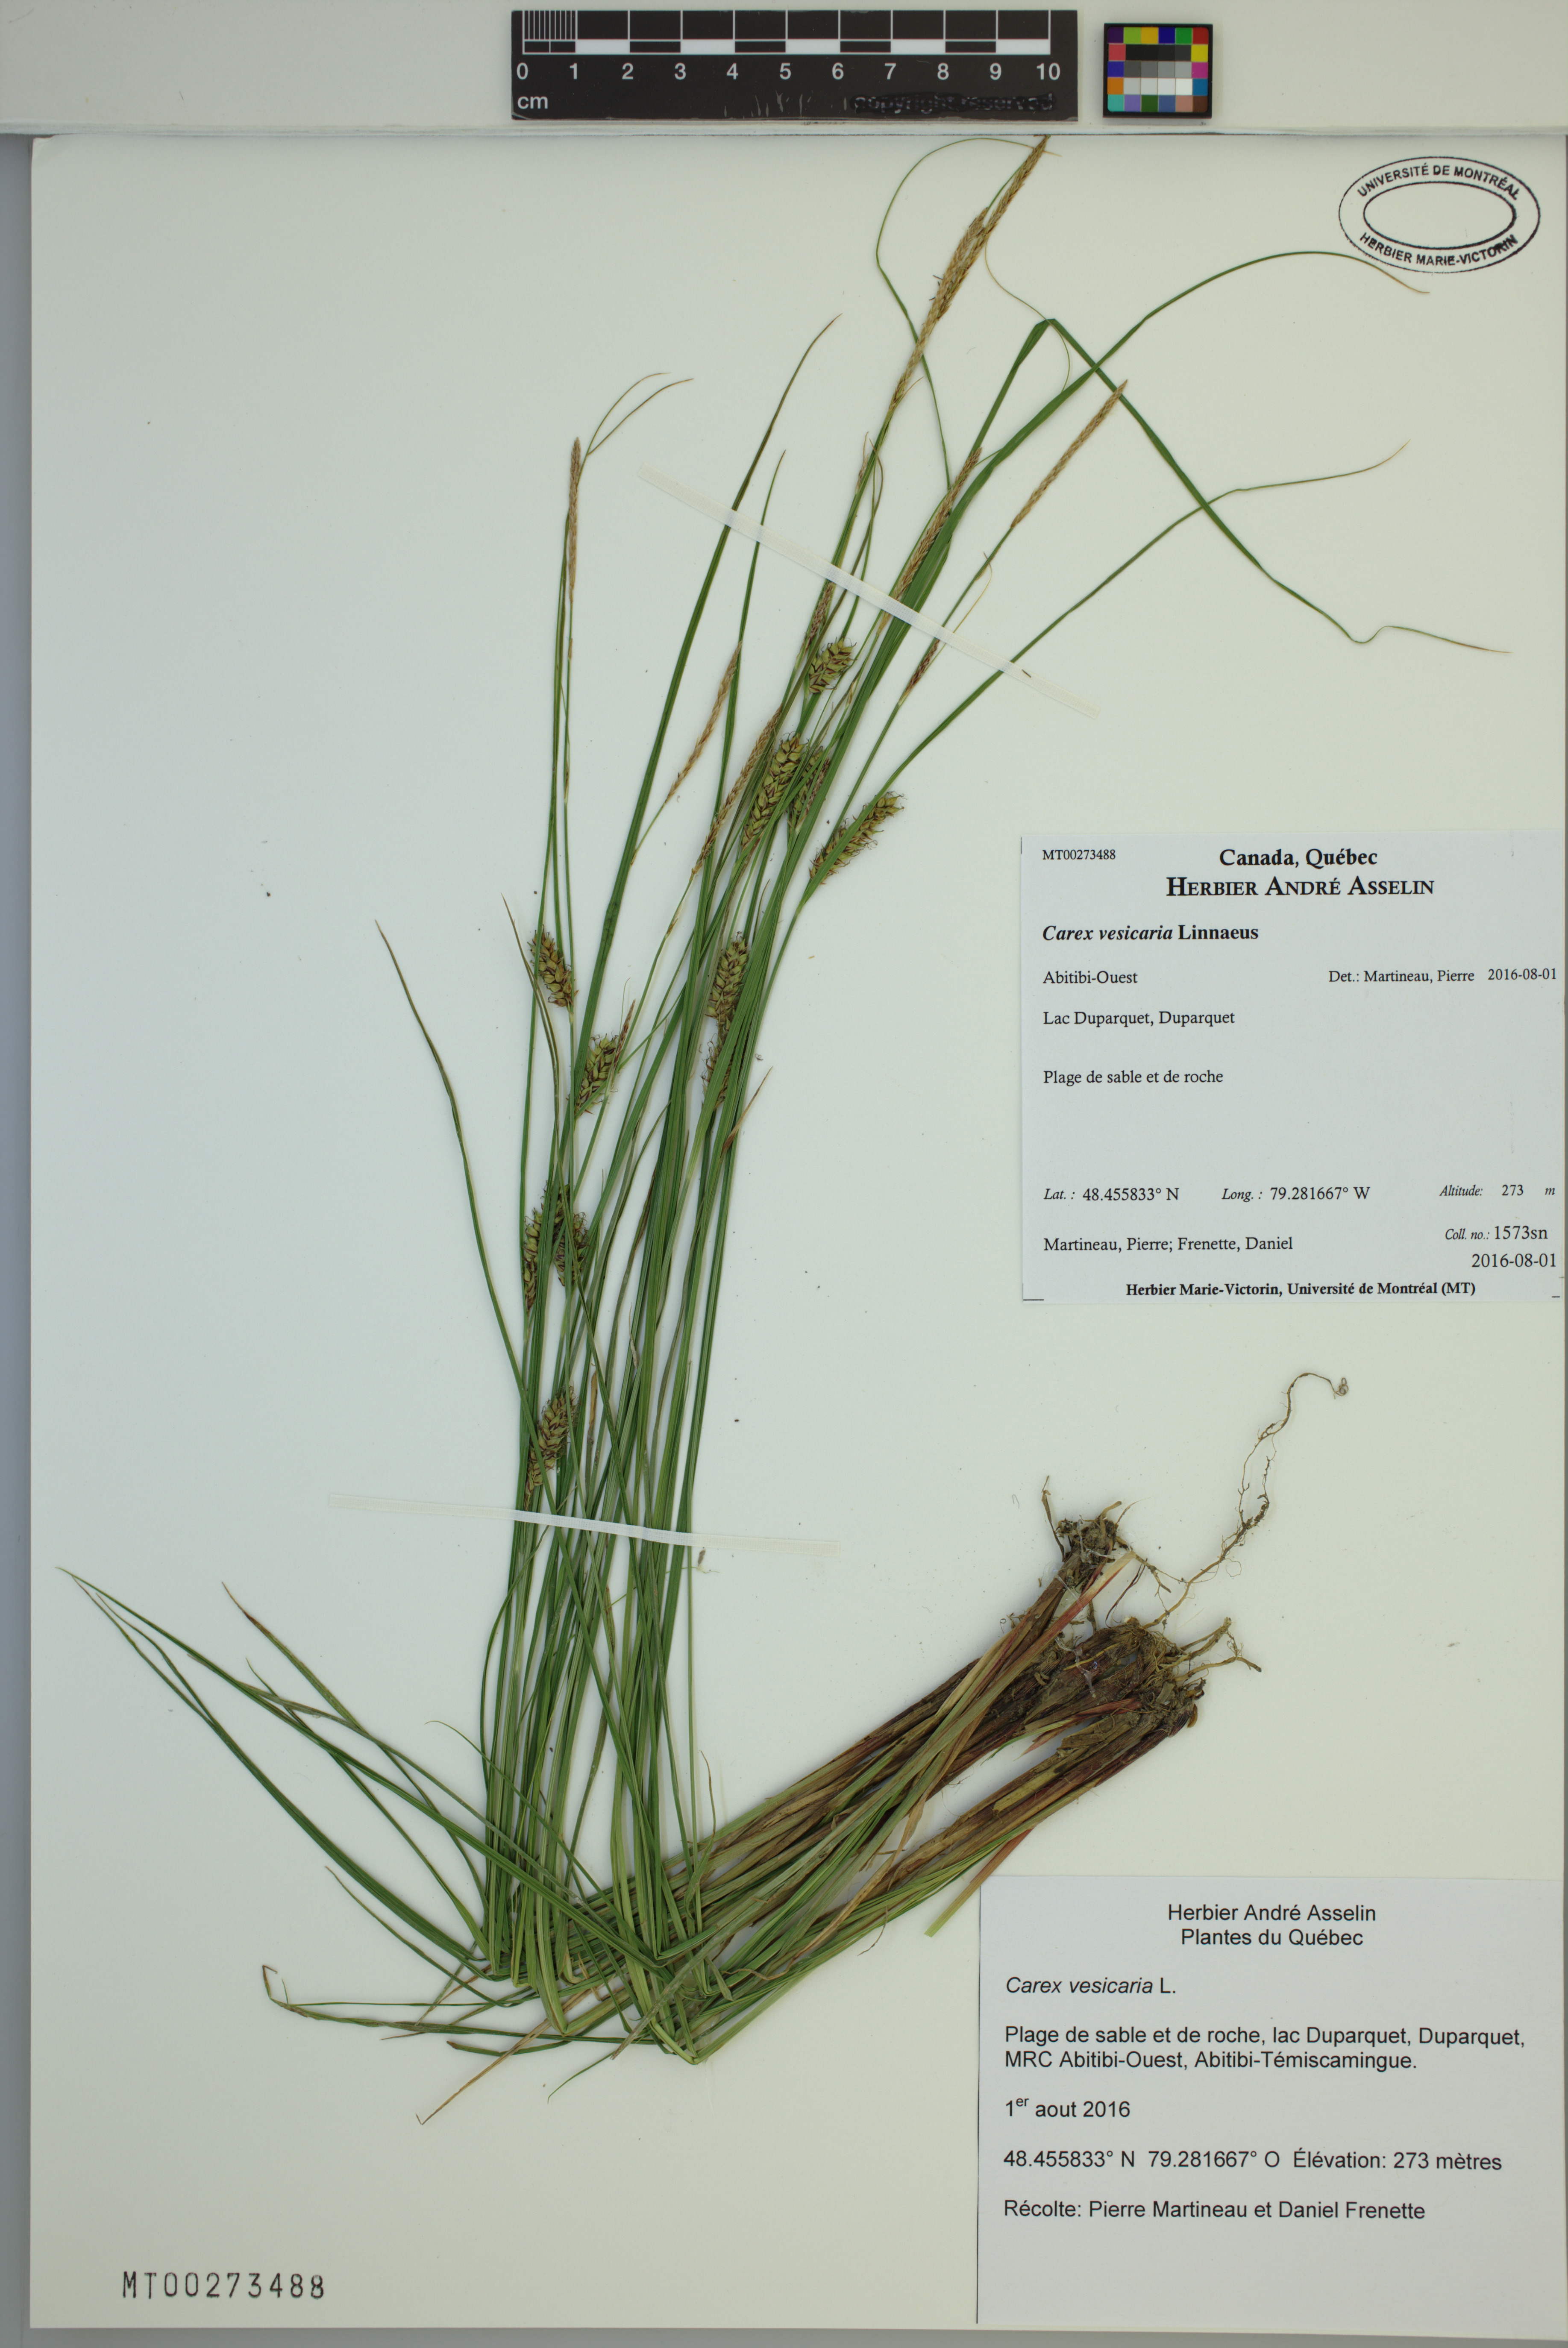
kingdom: Plantae
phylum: Tracheophyta
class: Liliopsida
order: Poales
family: Cyperaceae
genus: Carex
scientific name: Carex vesicaria
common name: Bladder-sedge
